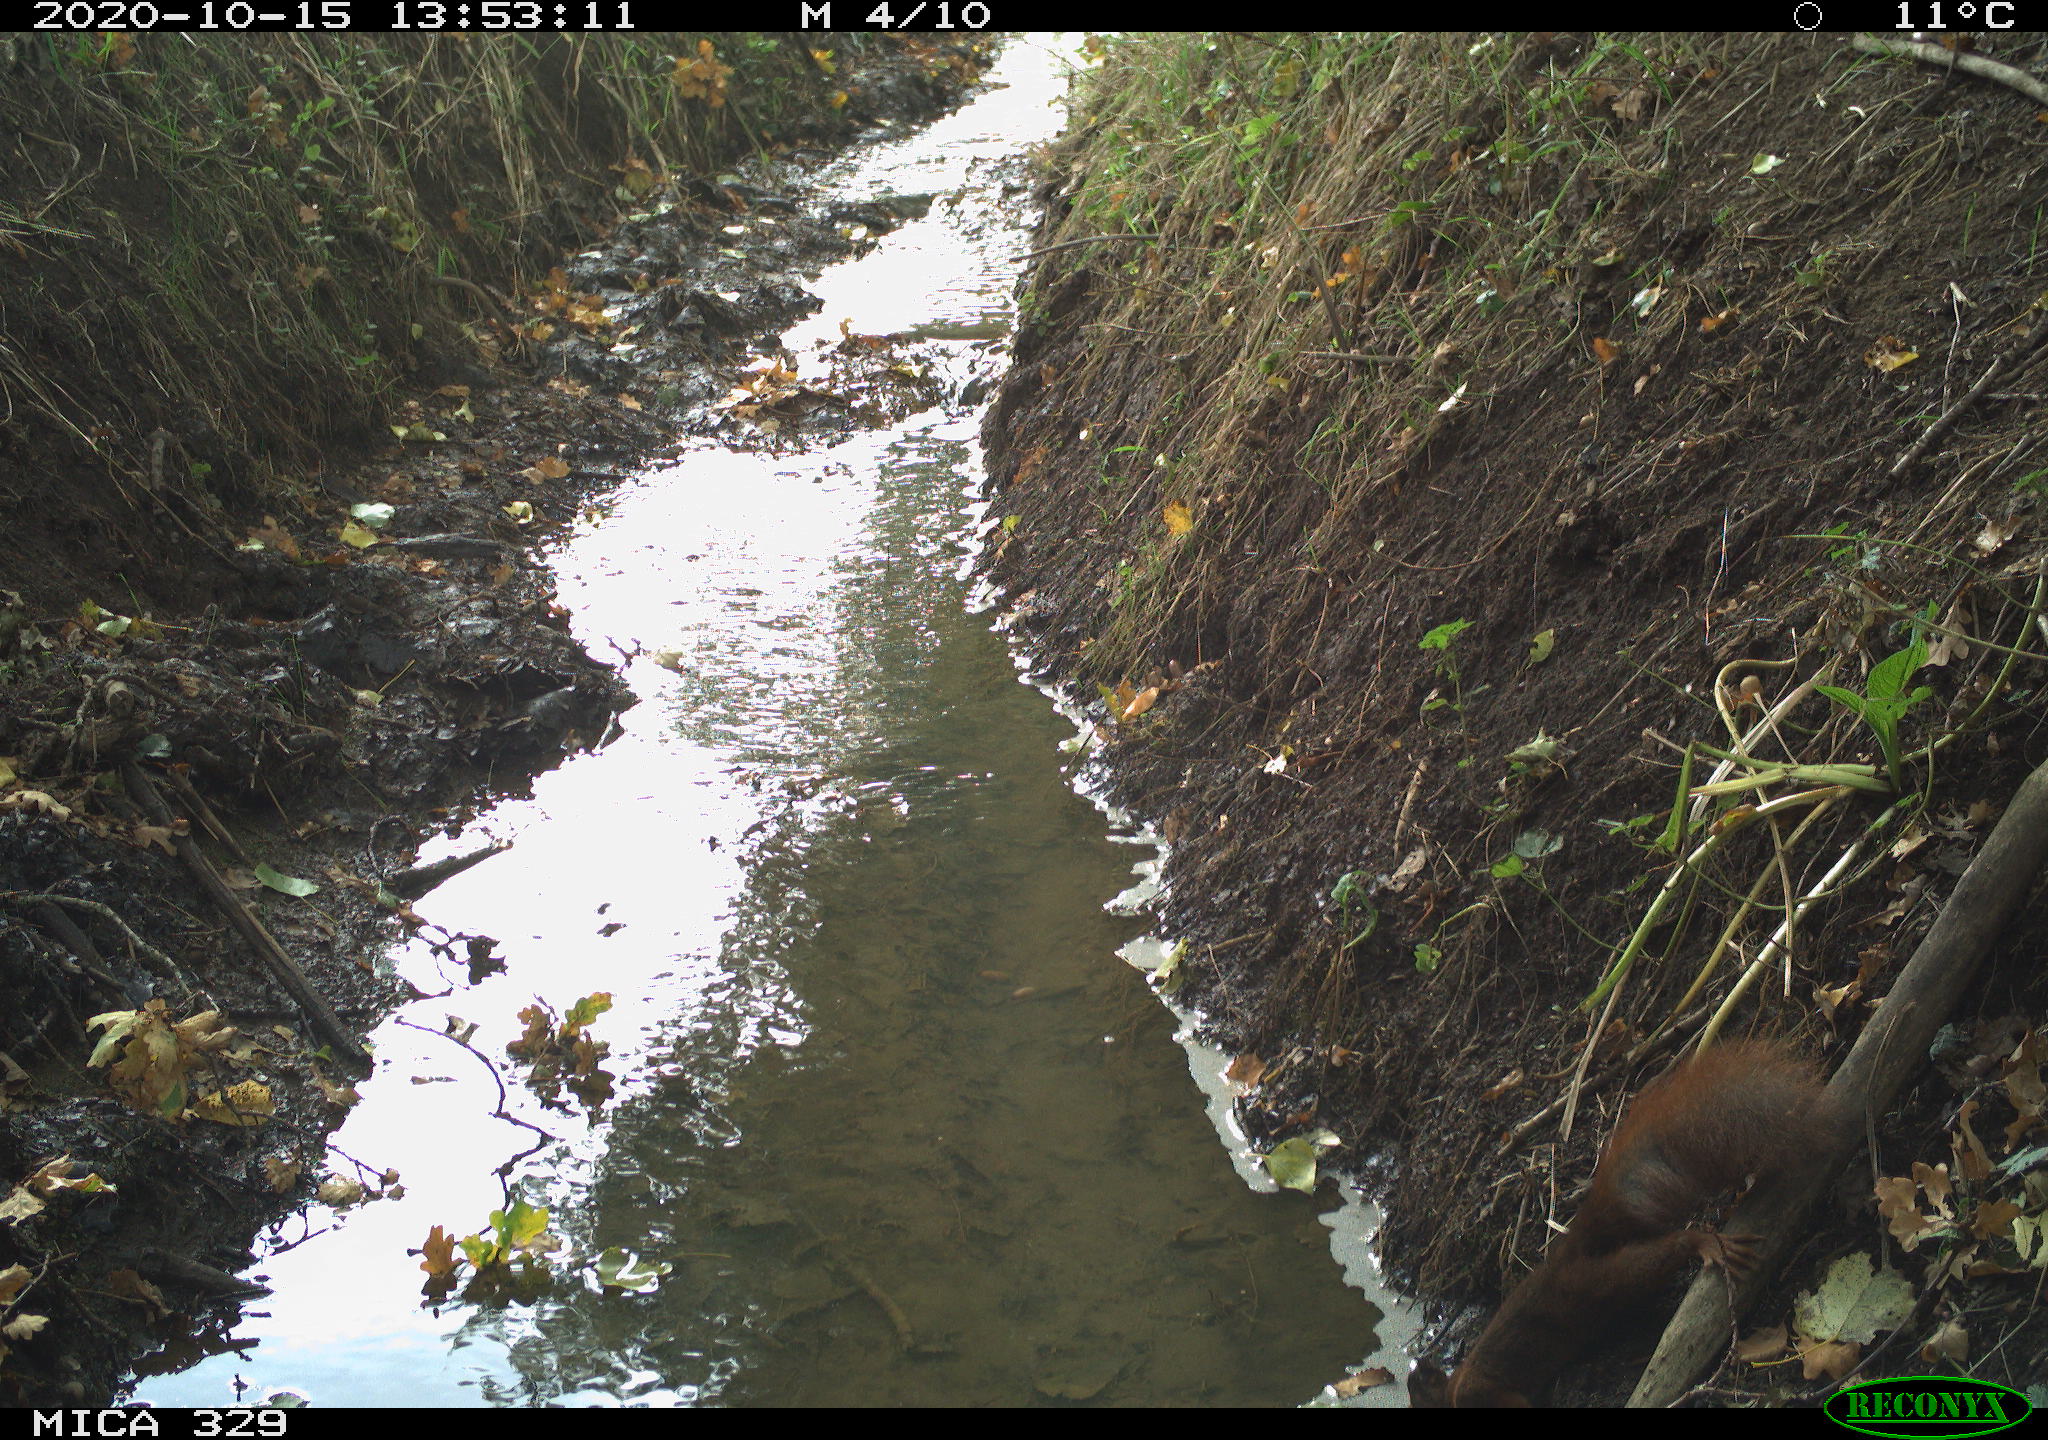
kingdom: Animalia
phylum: Chordata
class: Mammalia
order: Rodentia
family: Sciuridae
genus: Sciurus
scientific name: Sciurus vulgaris
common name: Eurasian red squirrel
